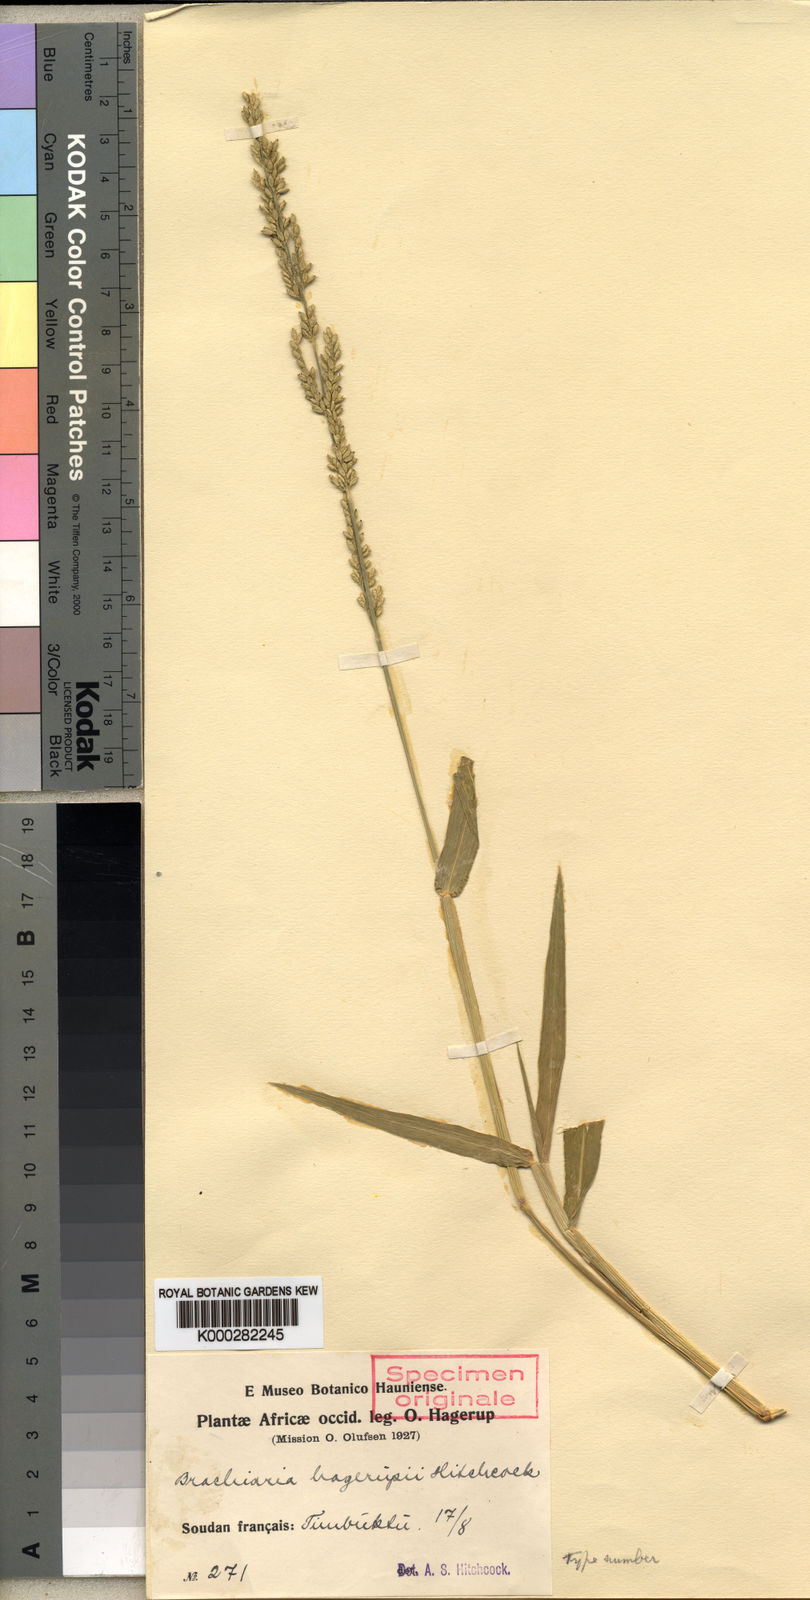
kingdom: Plantae
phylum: Tracheophyta
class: Liliopsida
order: Poales
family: Poaceae
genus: Urochloa
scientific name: Urochloa orthostachys
